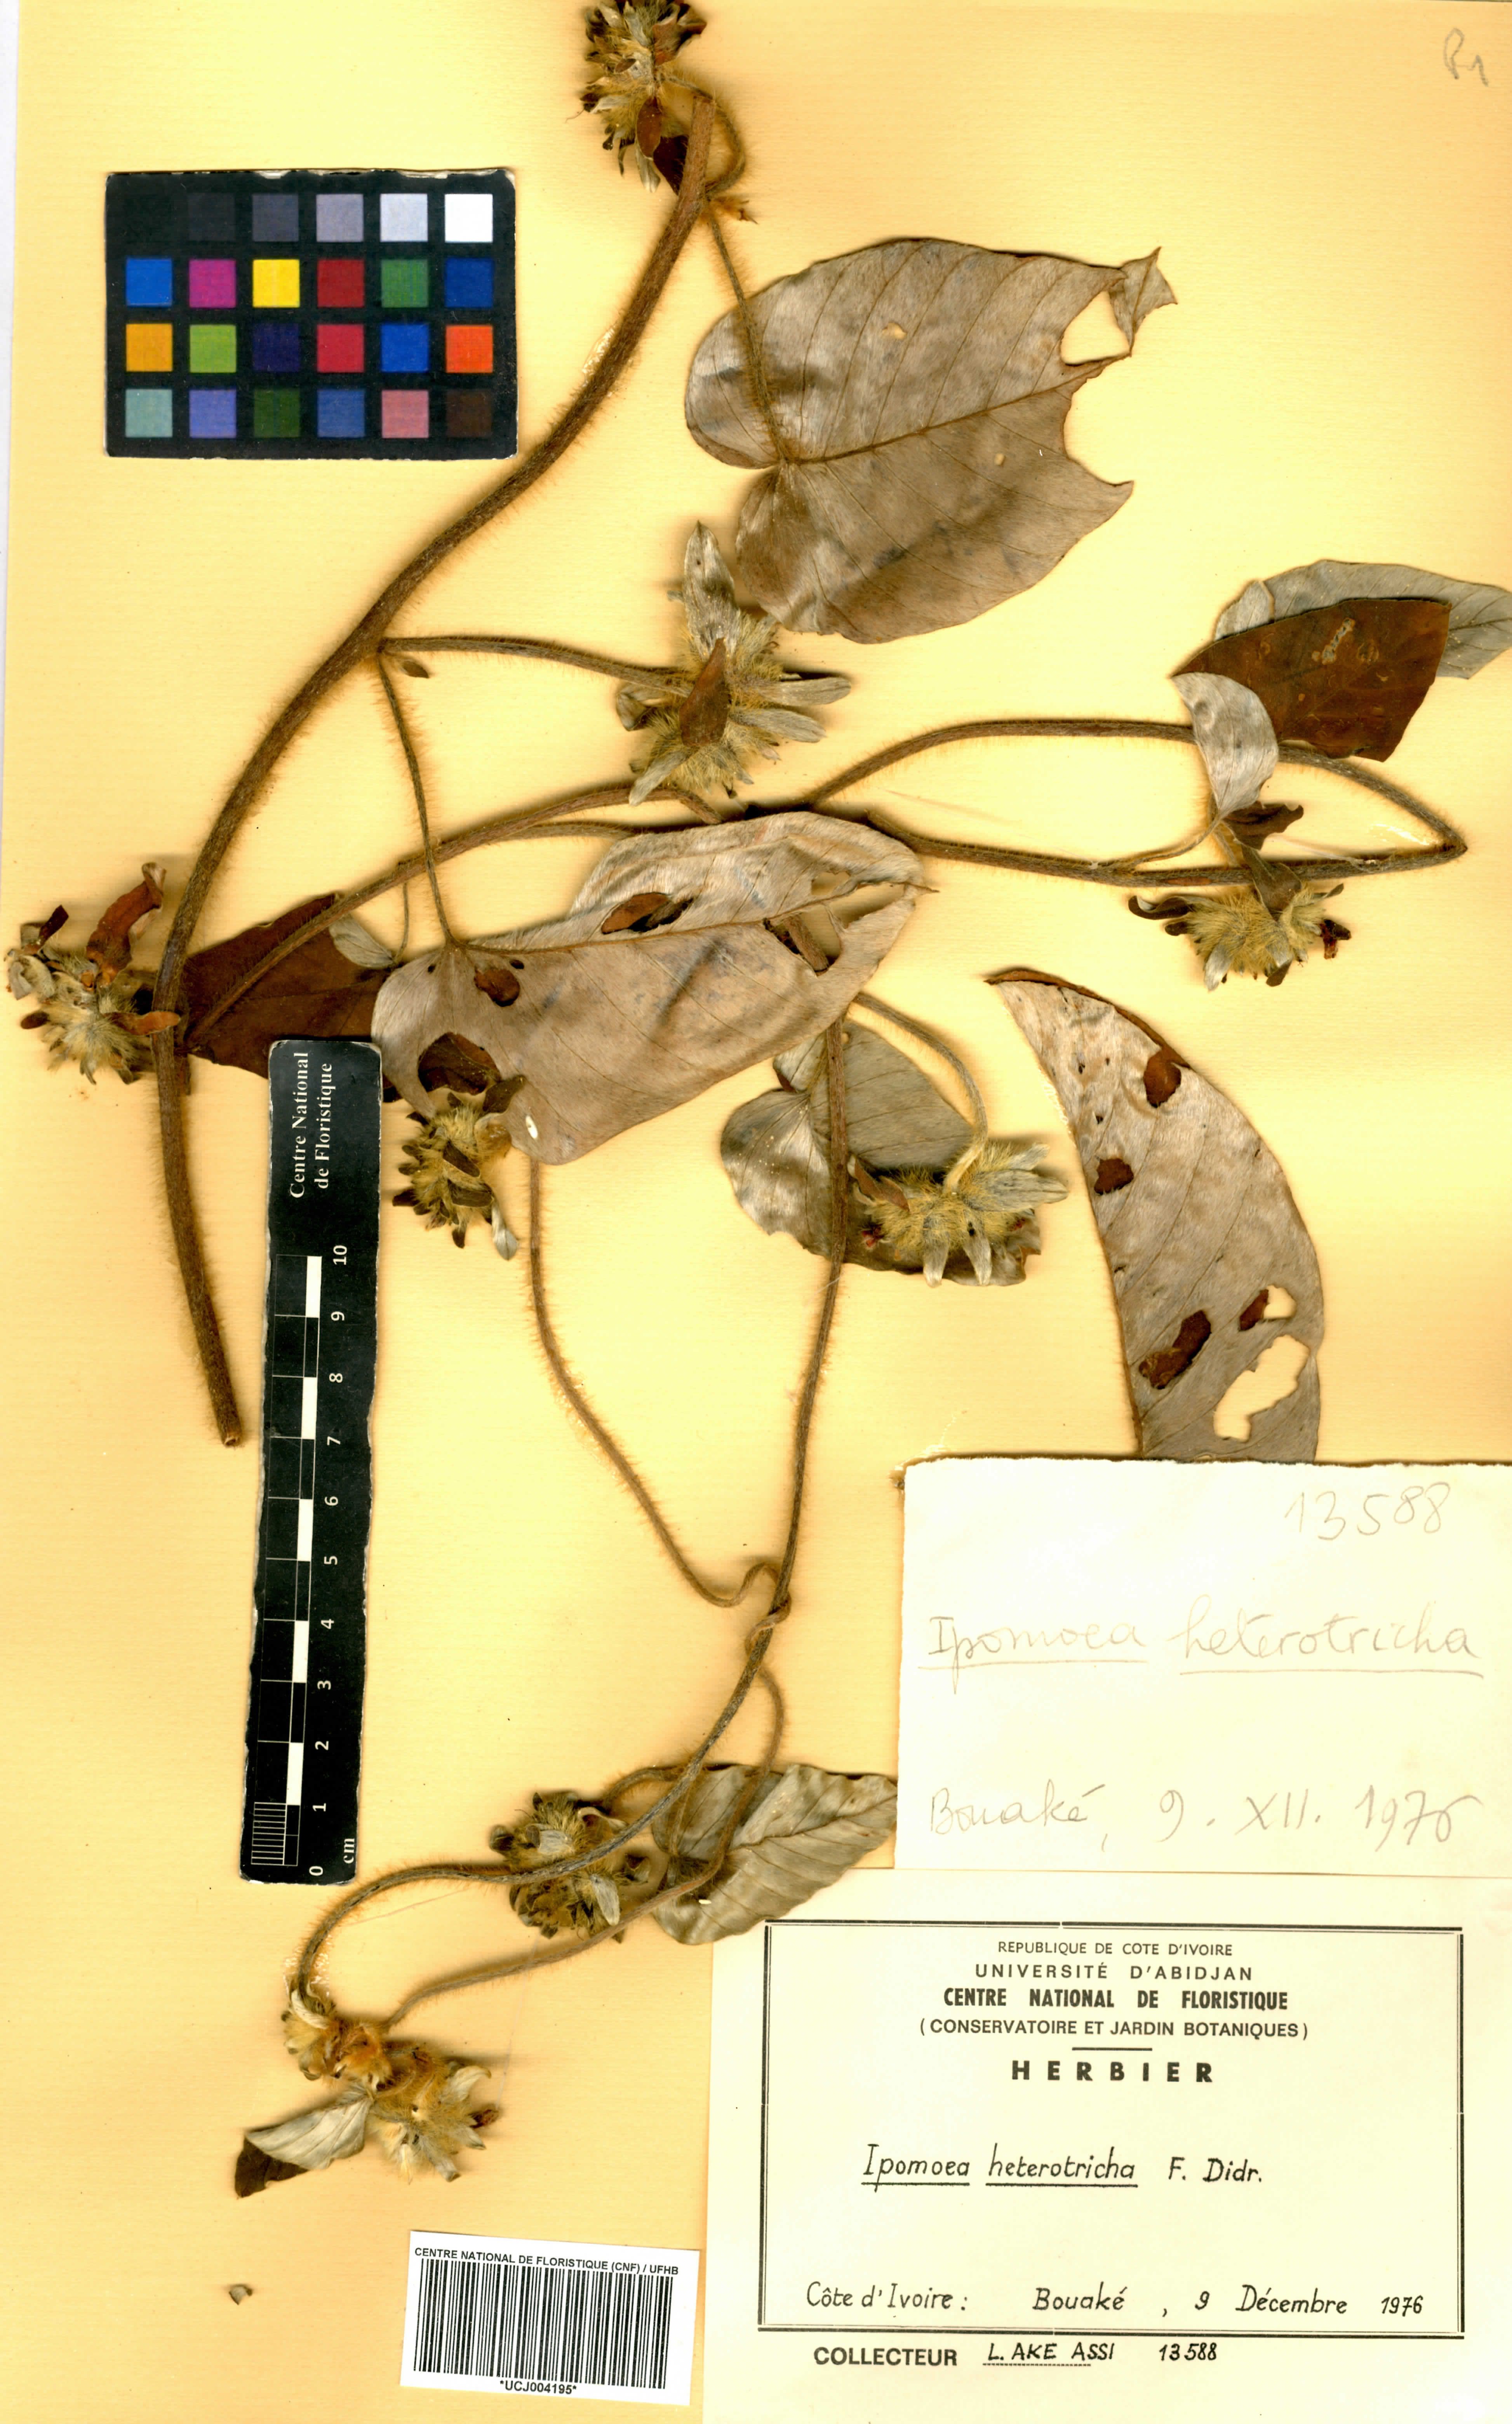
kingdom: Plantae
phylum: Tracheophyta
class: Magnoliopsida
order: Solanales
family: Convolvulaceae
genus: Ipomoea
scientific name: Ipomoea heterotricha
